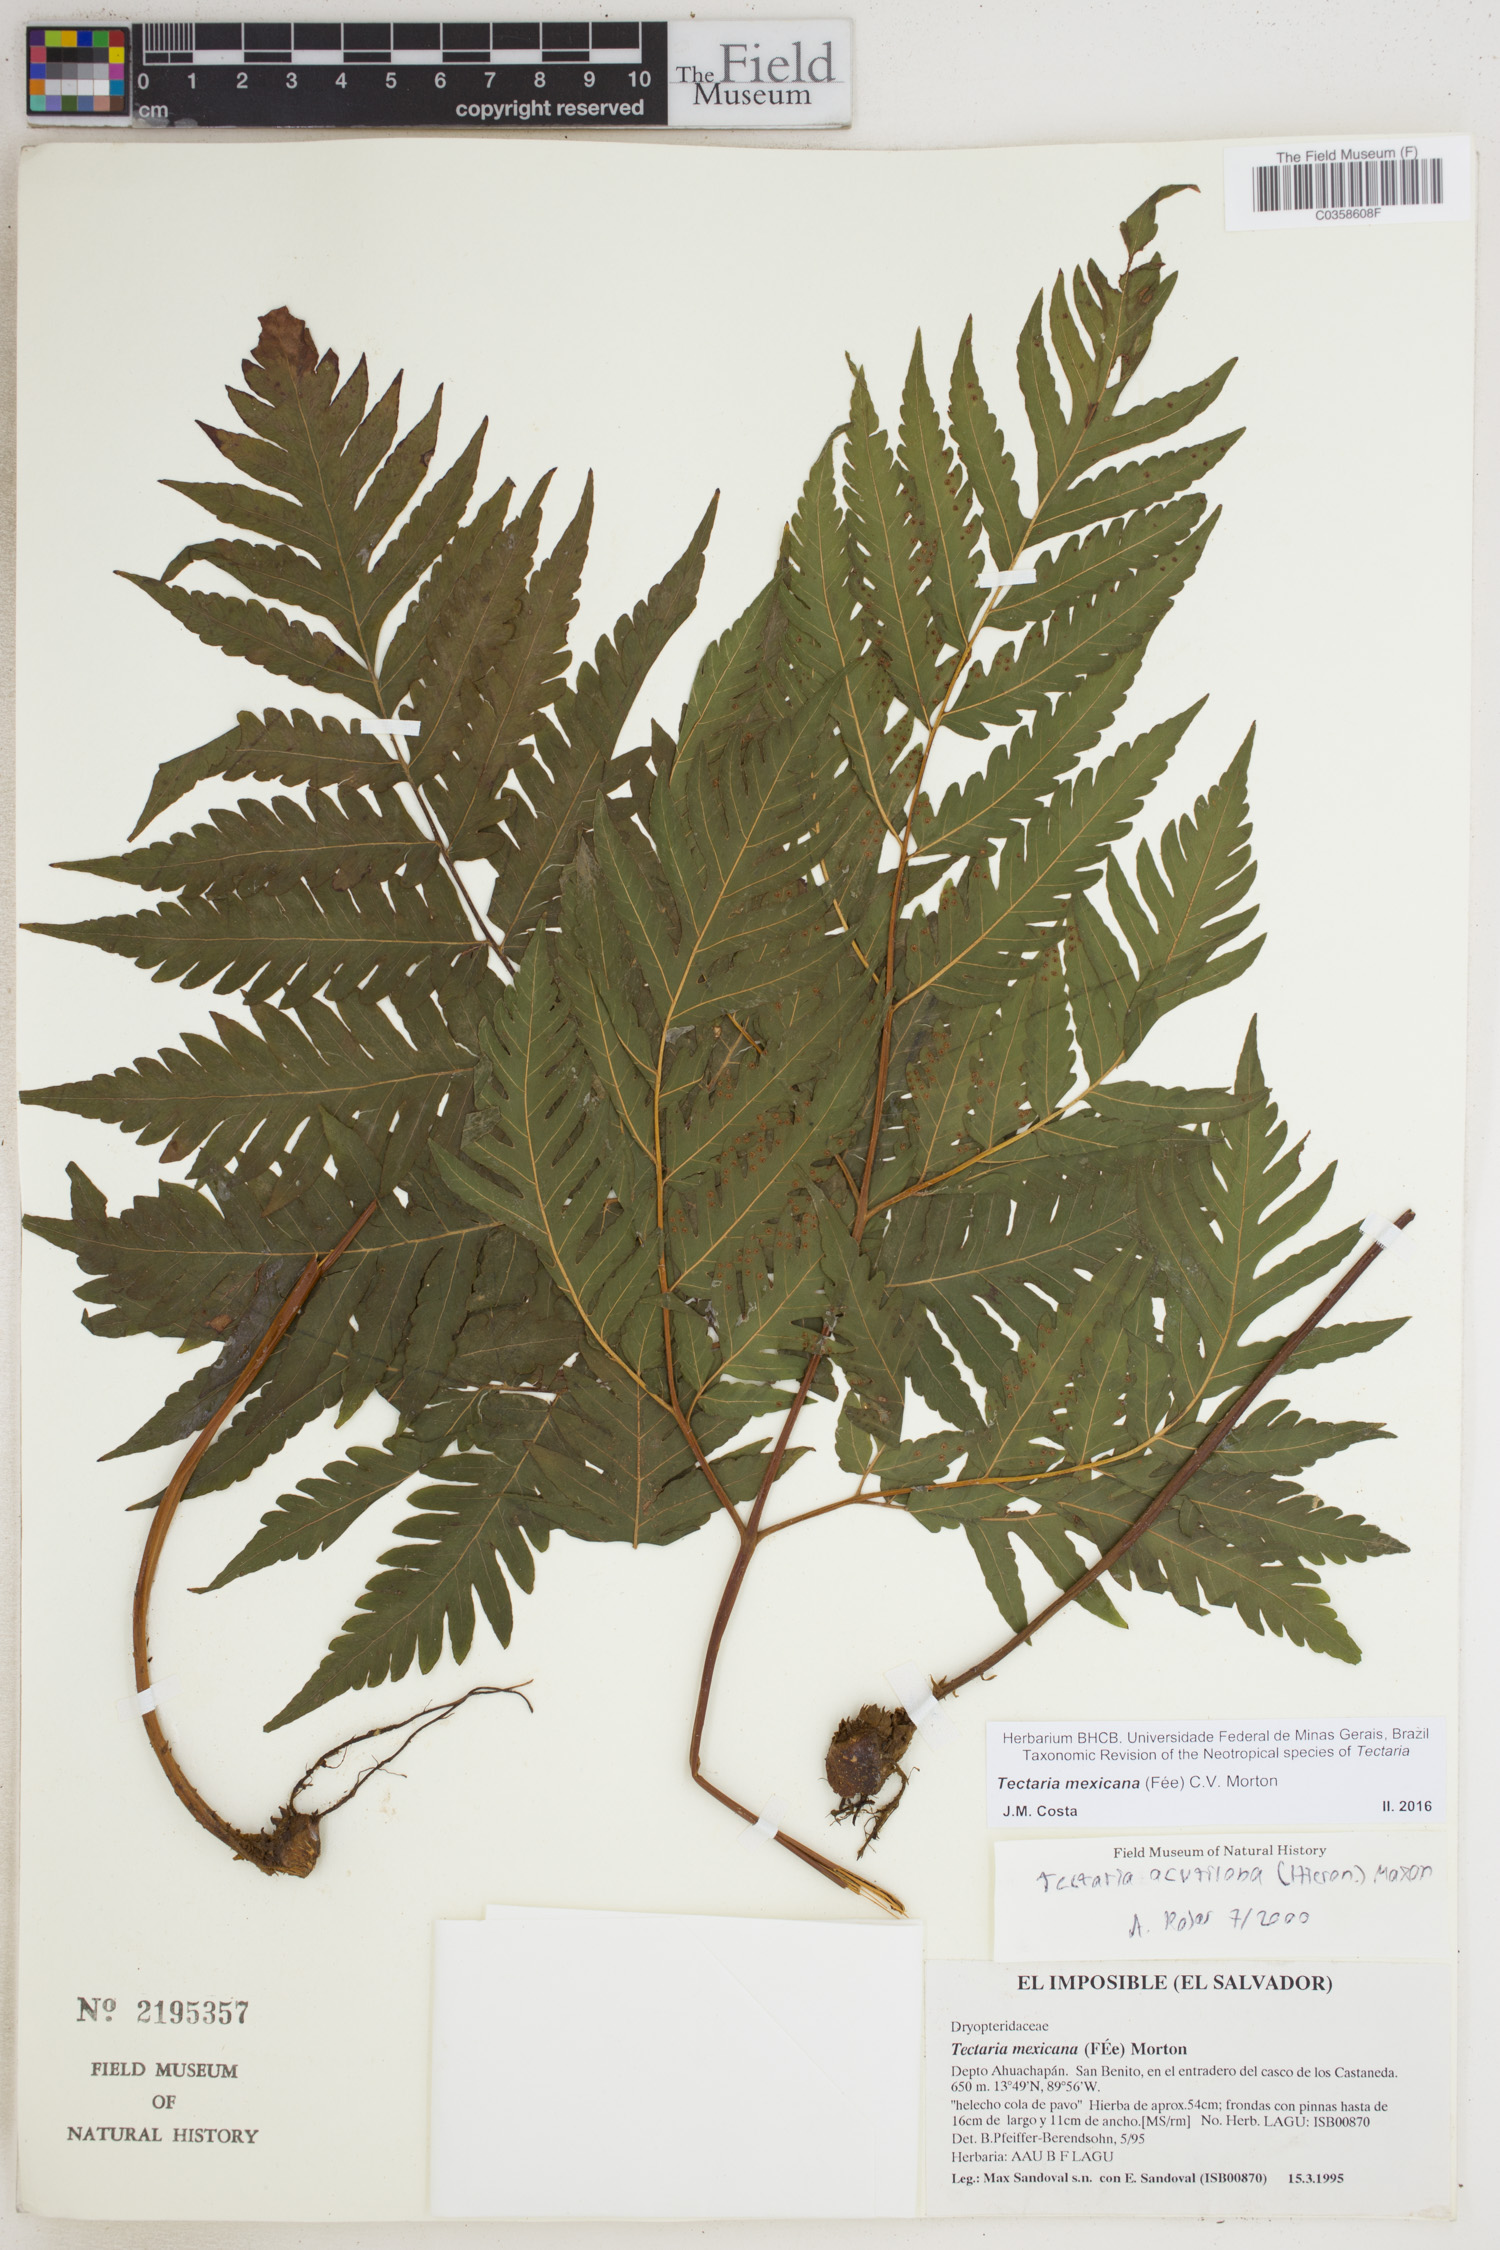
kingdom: Plantae
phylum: Tracheophyta
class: Polypodiopsida
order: Polypodiales
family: Tectariaceae
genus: Tectaria
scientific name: Tectaria mexicana
